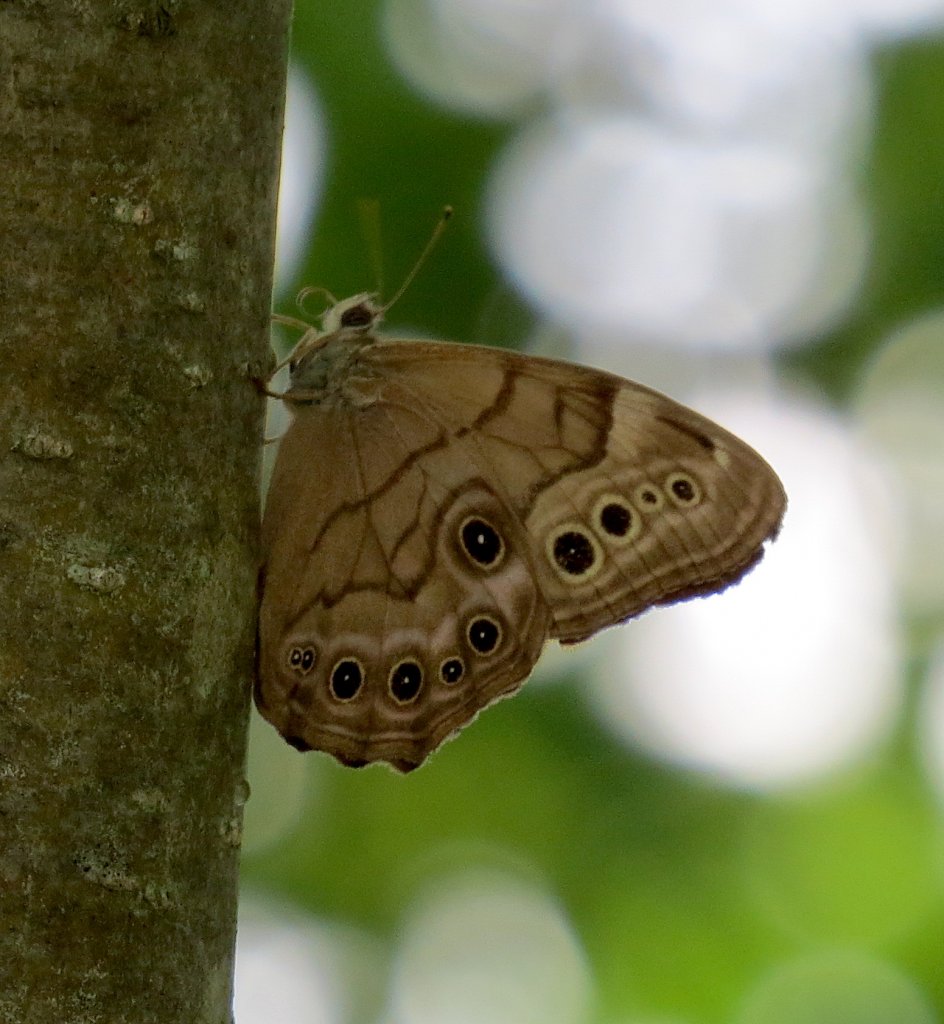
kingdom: Animalia
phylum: Arthropoda
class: Insecta
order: Lepidoptera
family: Nymphalidae
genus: Lethe
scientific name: Lethe anthedon
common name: Northern Pearly-Eye
